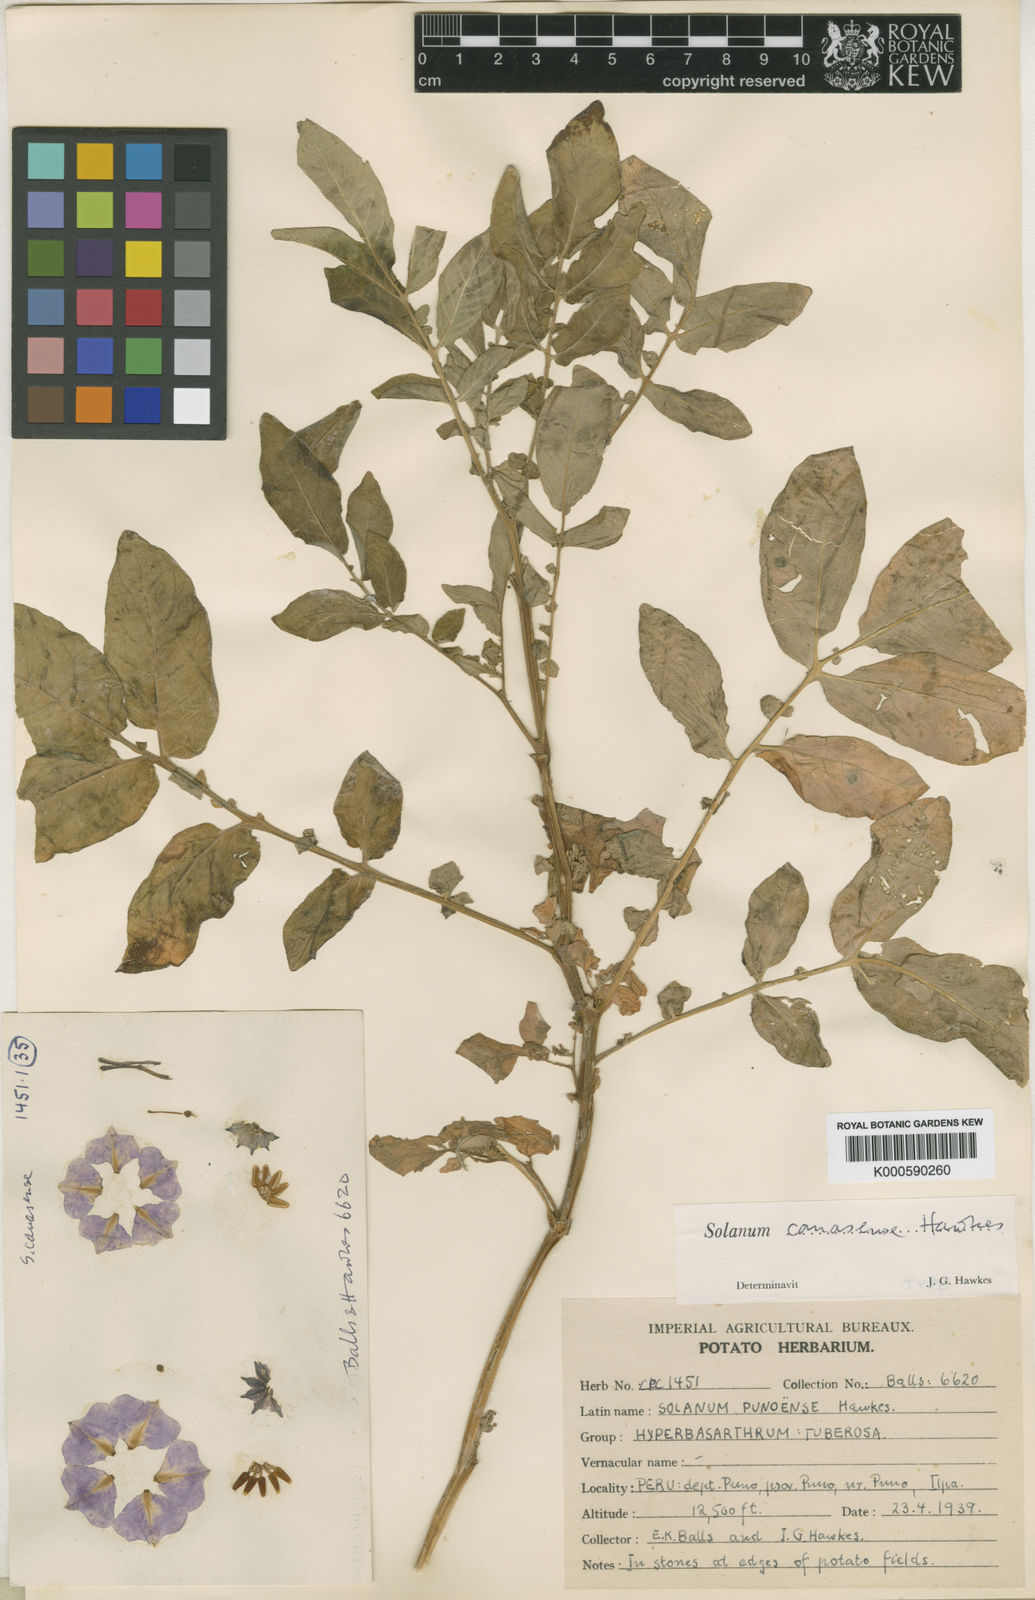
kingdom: Plantae
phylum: Tracheophyta
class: Magnoliopsida
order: Solanales
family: Solanaceae
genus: Solanum
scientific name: Solanum candolleanum
